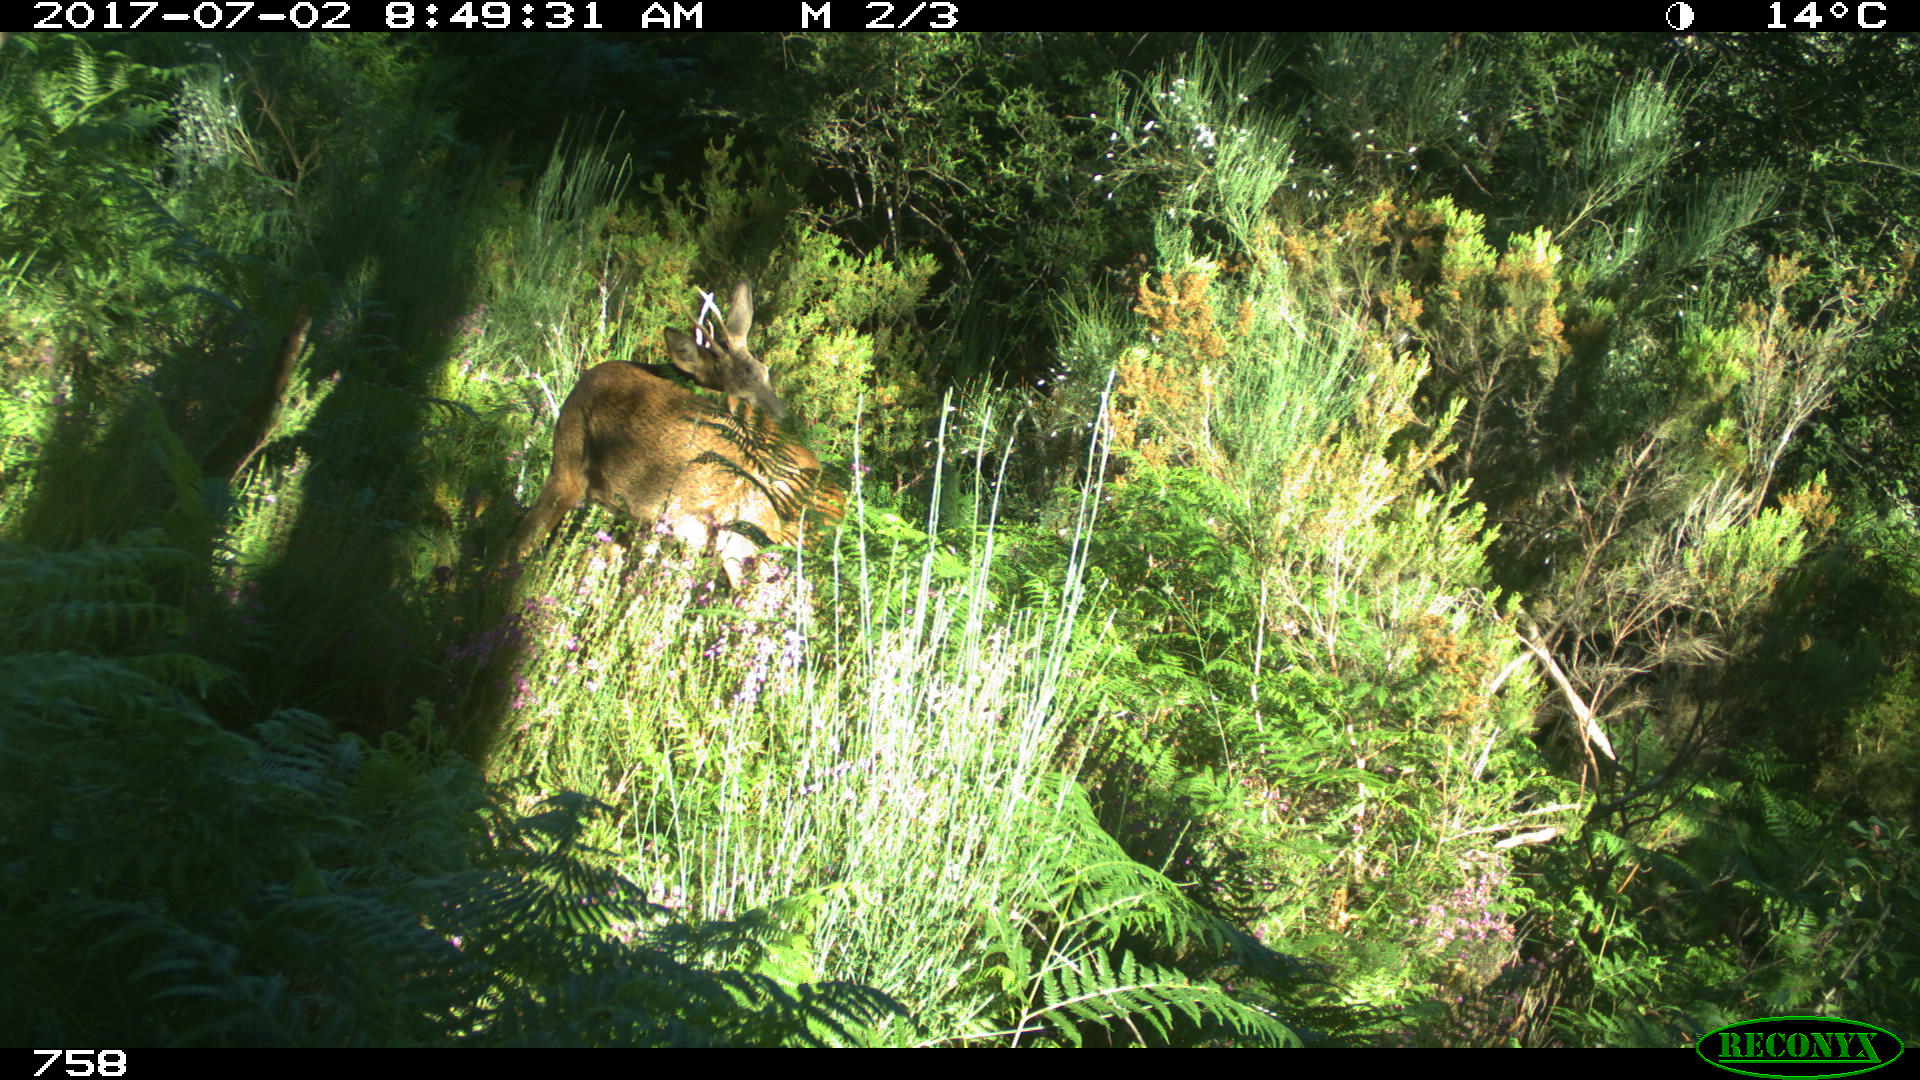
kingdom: Animalia
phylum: Chordata
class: Mammalia
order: Artiodactyla
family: Cervidae
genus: Capreolus
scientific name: Capreolus capreolus
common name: Western roe deer
